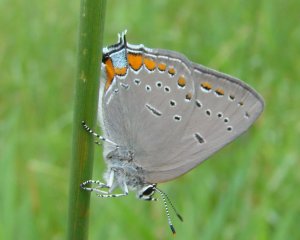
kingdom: Animalia
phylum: Arthropoda
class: Insecta
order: Lepidoptera
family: Lycaenidae
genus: Strymon
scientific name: Strymon acadica
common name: Acadian Hairstreak
